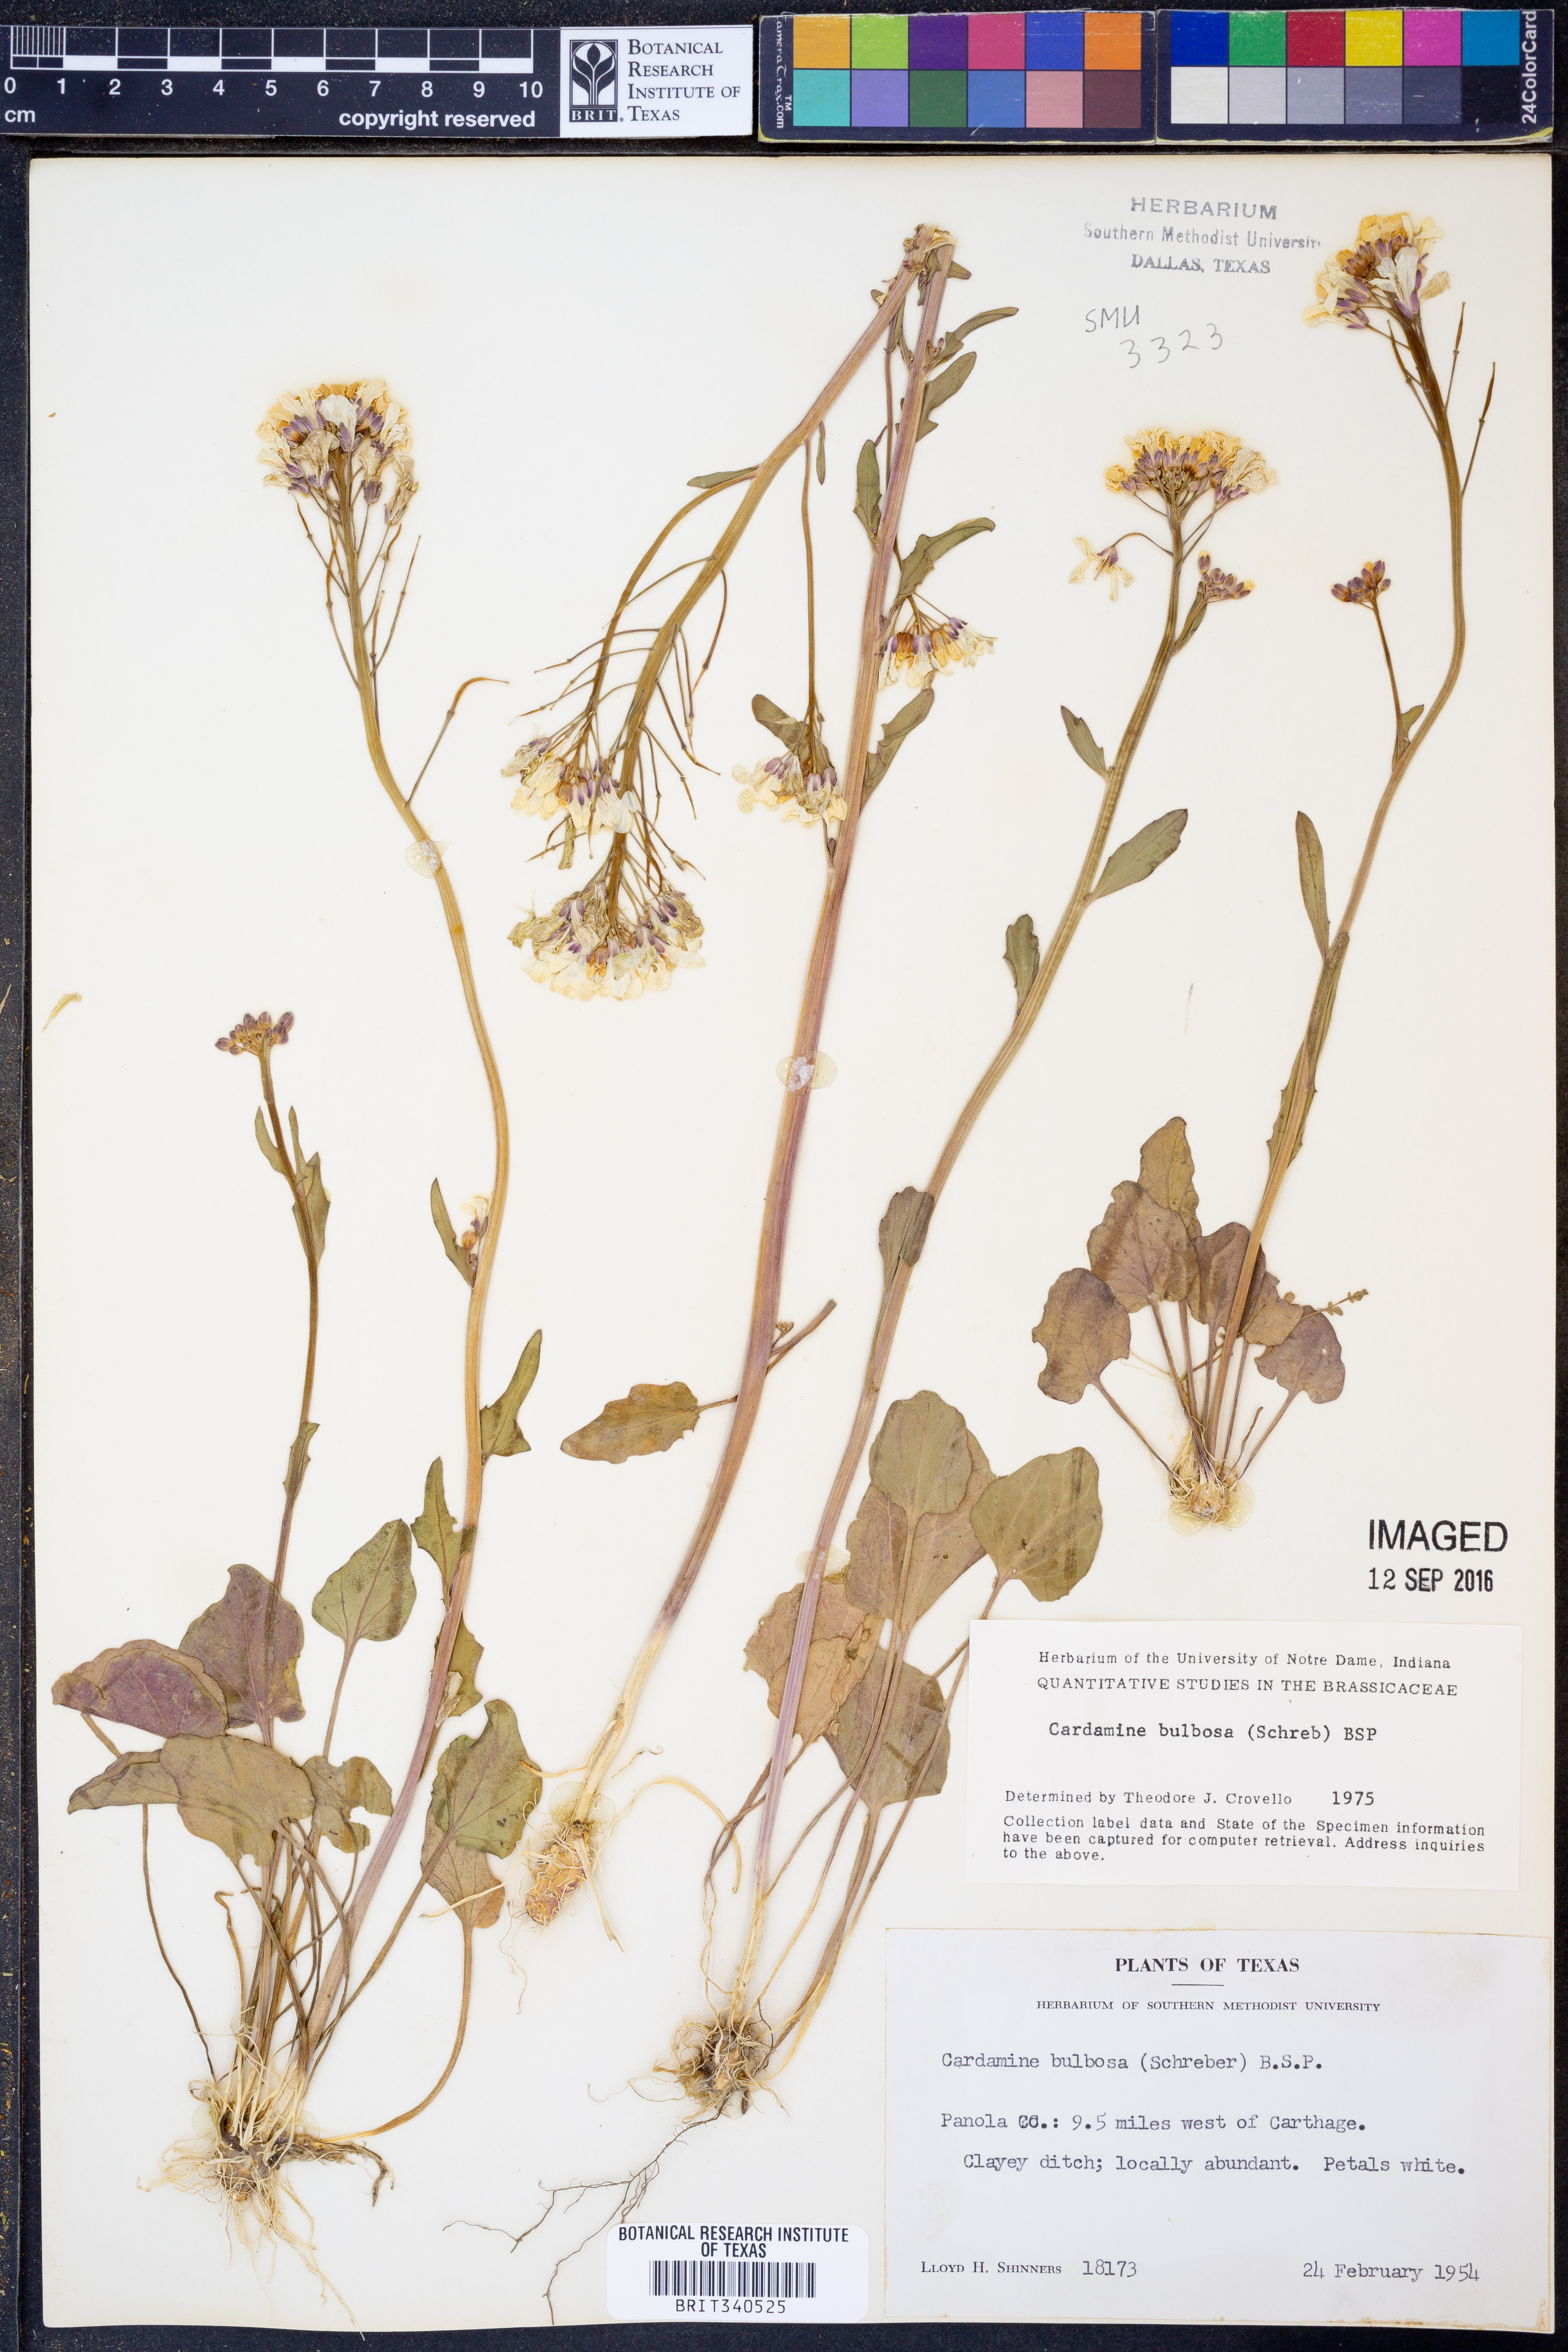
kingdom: Plantae
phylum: Tracheophyta
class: Magnoliopsida
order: Brassicales
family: Brassicaceae
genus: Cardamine
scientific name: Cardamine bulbosa
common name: Spring cress
